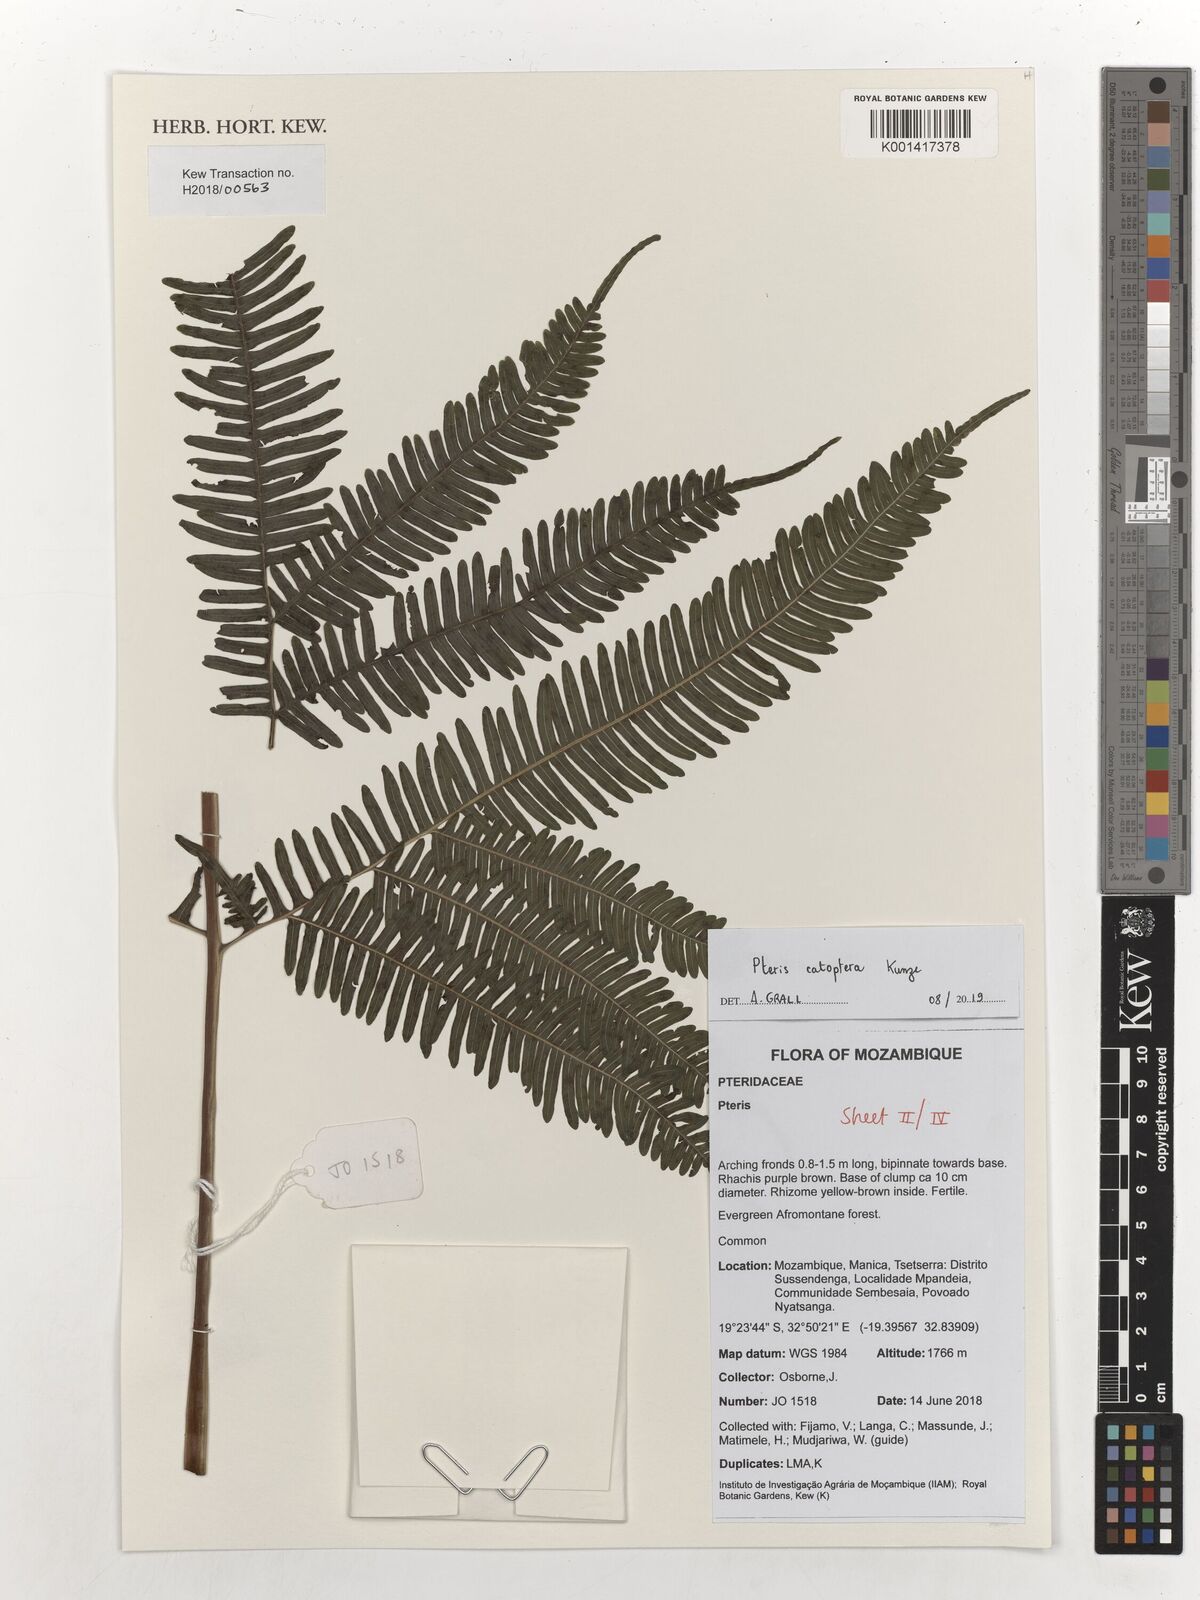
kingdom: Plantae
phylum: Tracheophyta
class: Polypodiopsida
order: Polypodiales
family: Pteridaceae
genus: Pteris
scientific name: Pteris catoptera
